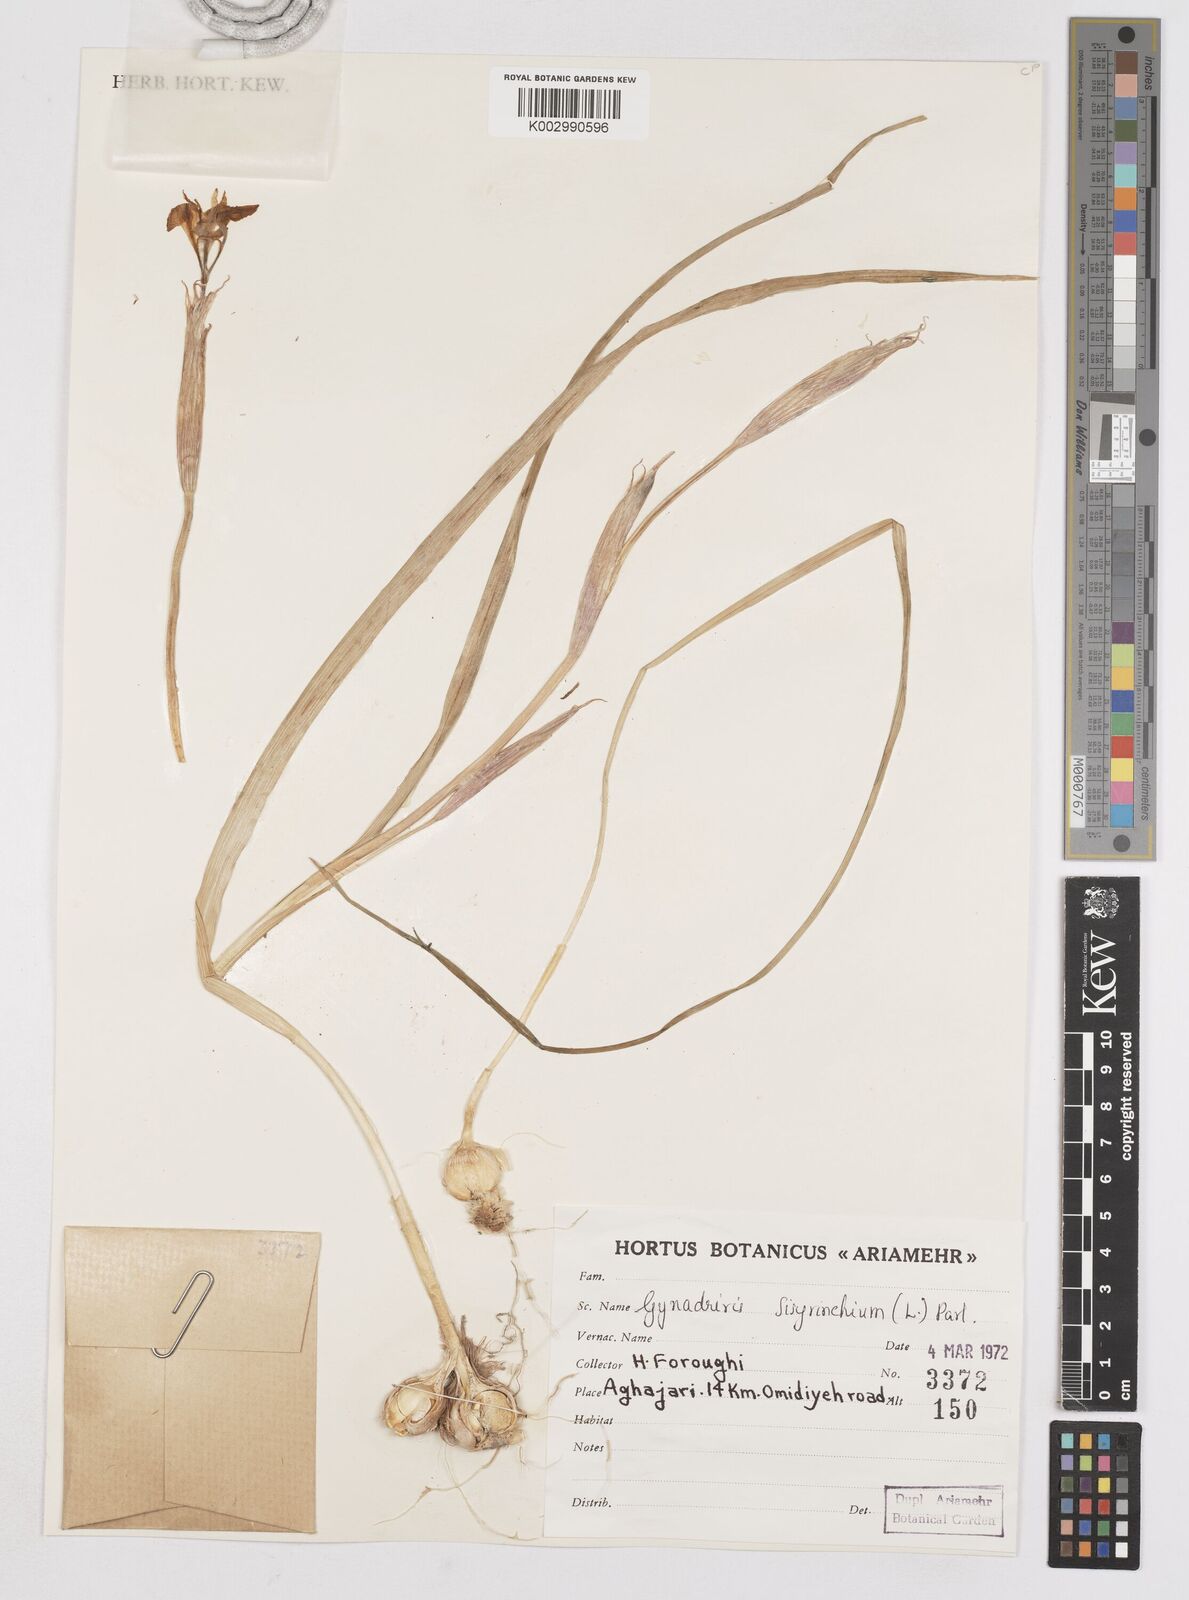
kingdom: Plantae
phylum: Tracheophyta
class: Liliopsida
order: Asparagales
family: Iridaceae
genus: Moraea
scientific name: Moraea sisyrinchium
